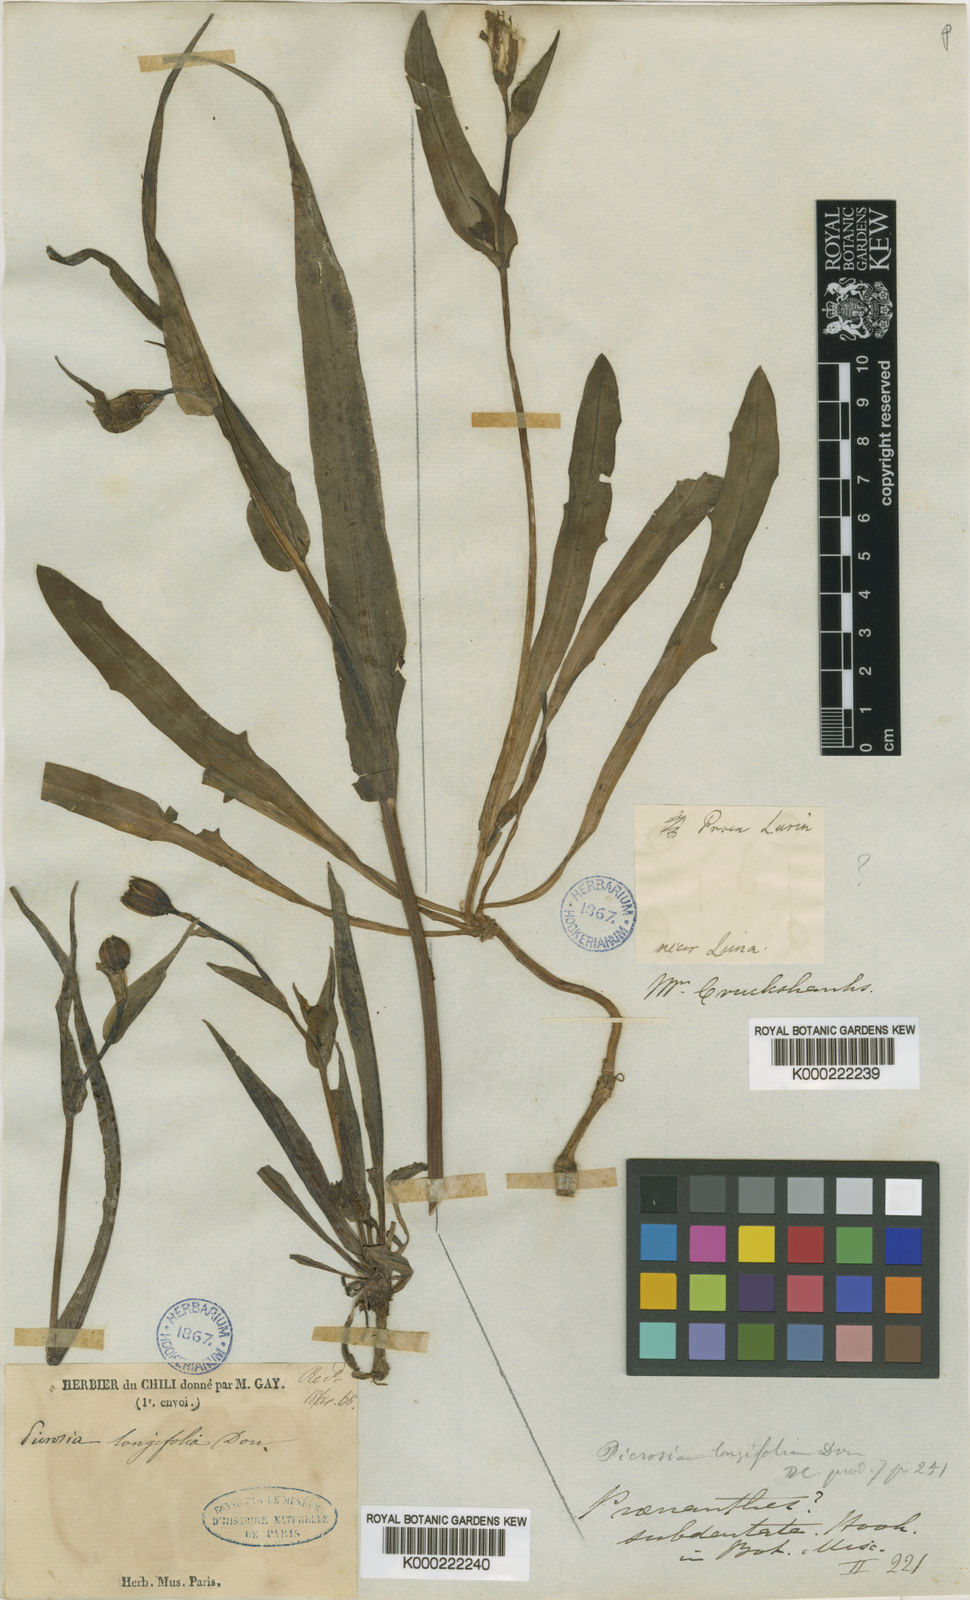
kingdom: Plantae
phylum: Tracheophyta
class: Magnoliopsida
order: Asterales
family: Asteraceae
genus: Picrosia
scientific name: Picrosia longifolia
